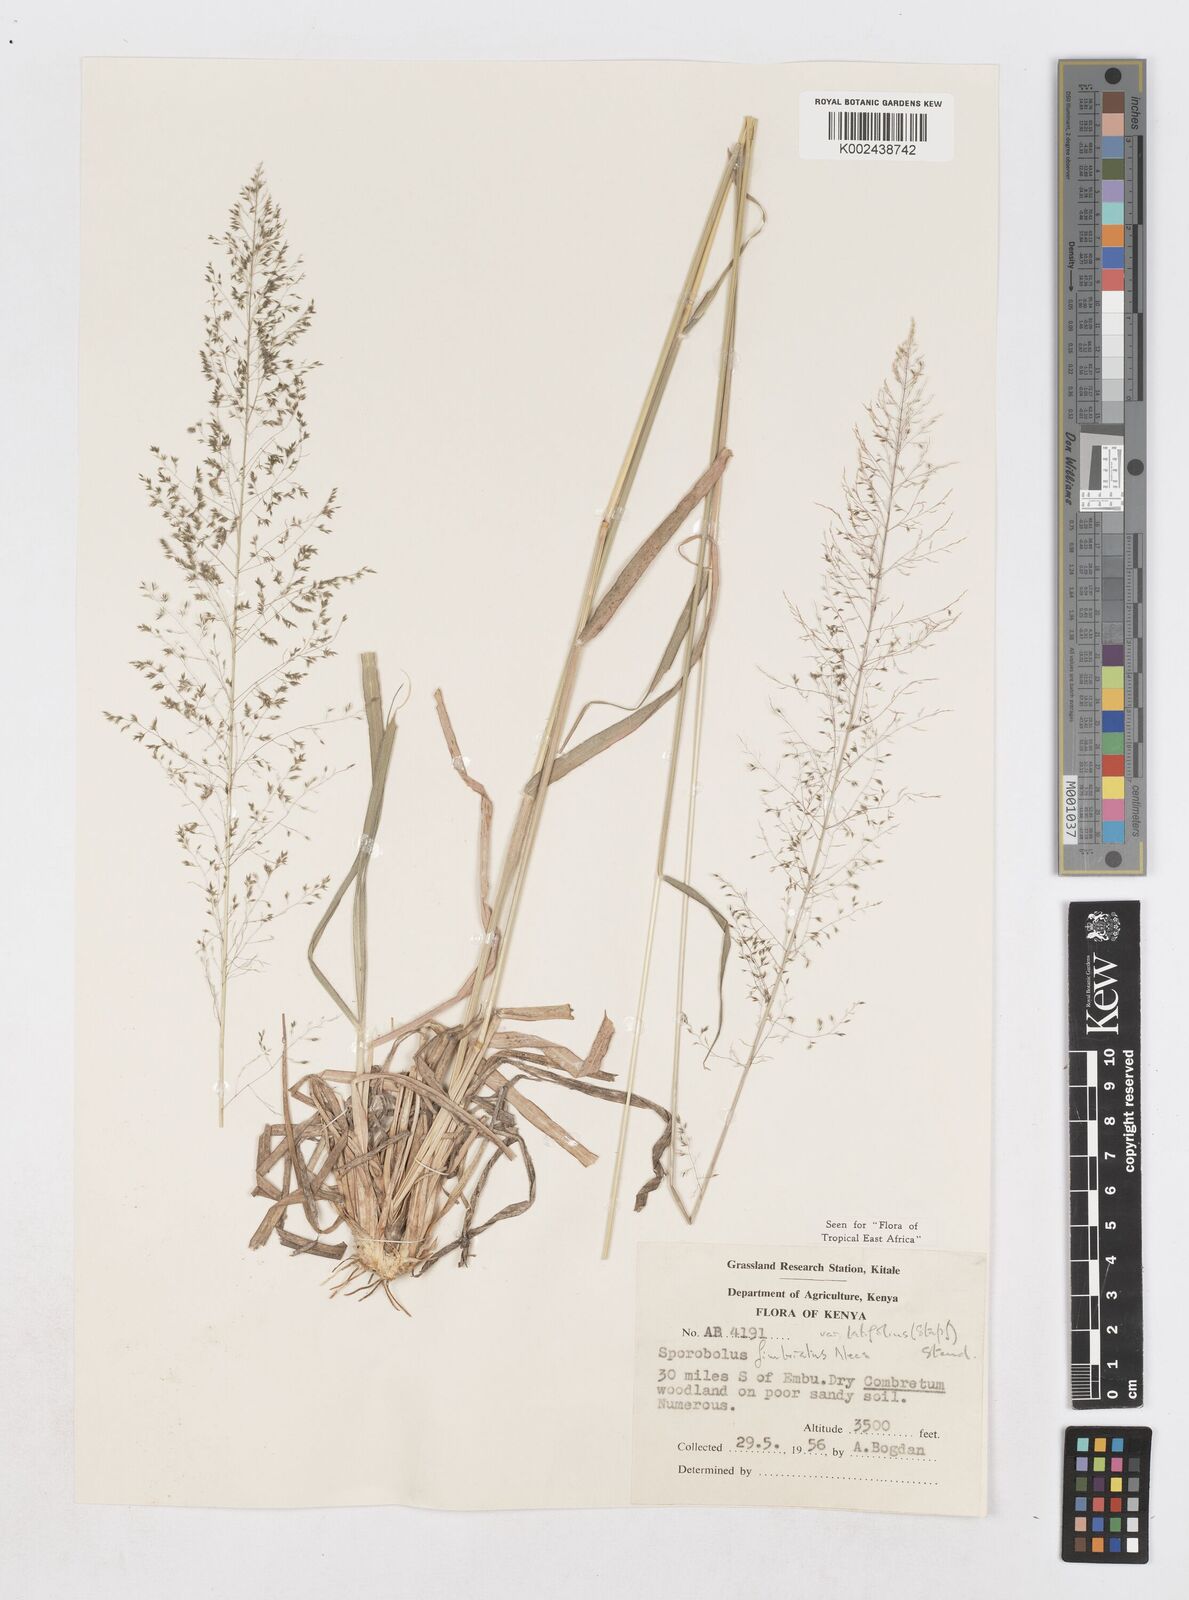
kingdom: Plantae
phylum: Tracheophyta
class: Liliopsida
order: Poales
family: Poaceae
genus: Sporobolus
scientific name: Sporobolus fimbriatus
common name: Fringed dropseed
